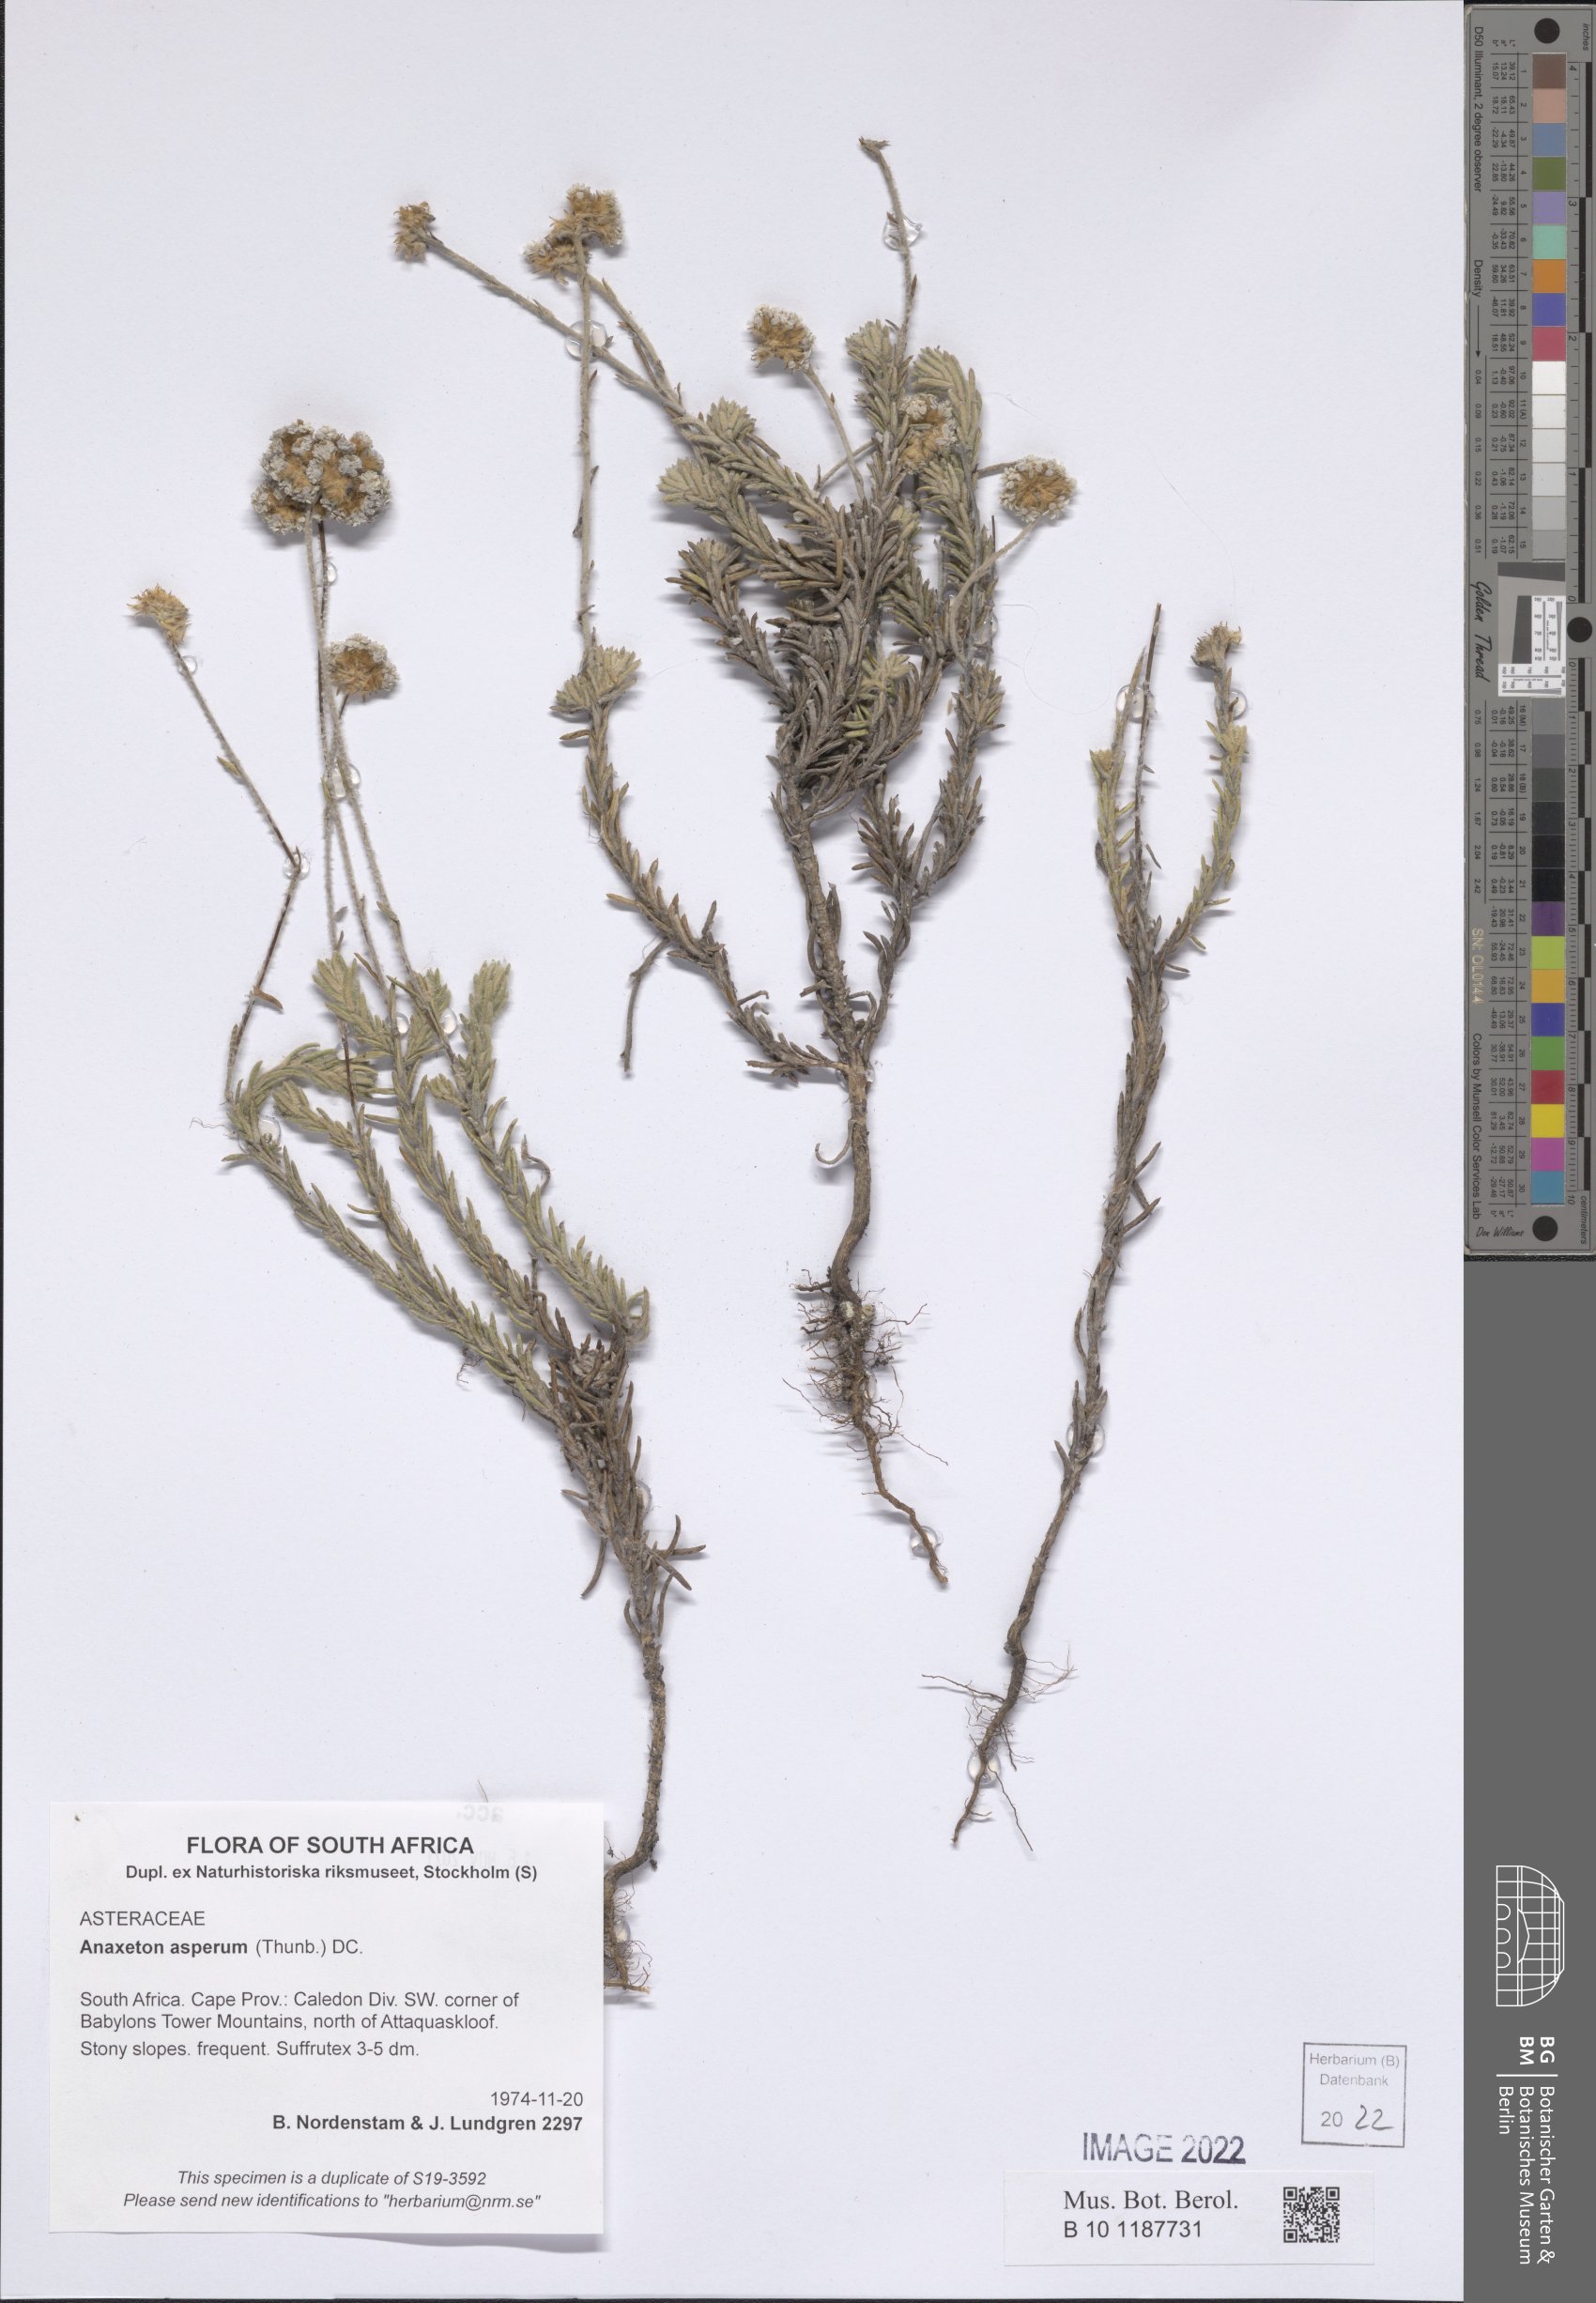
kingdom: Plantae
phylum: Tracheophyta
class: Magnoliopsida
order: Asterales
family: Asteraceae
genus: Anaxeton
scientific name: Anaxeton asperum
